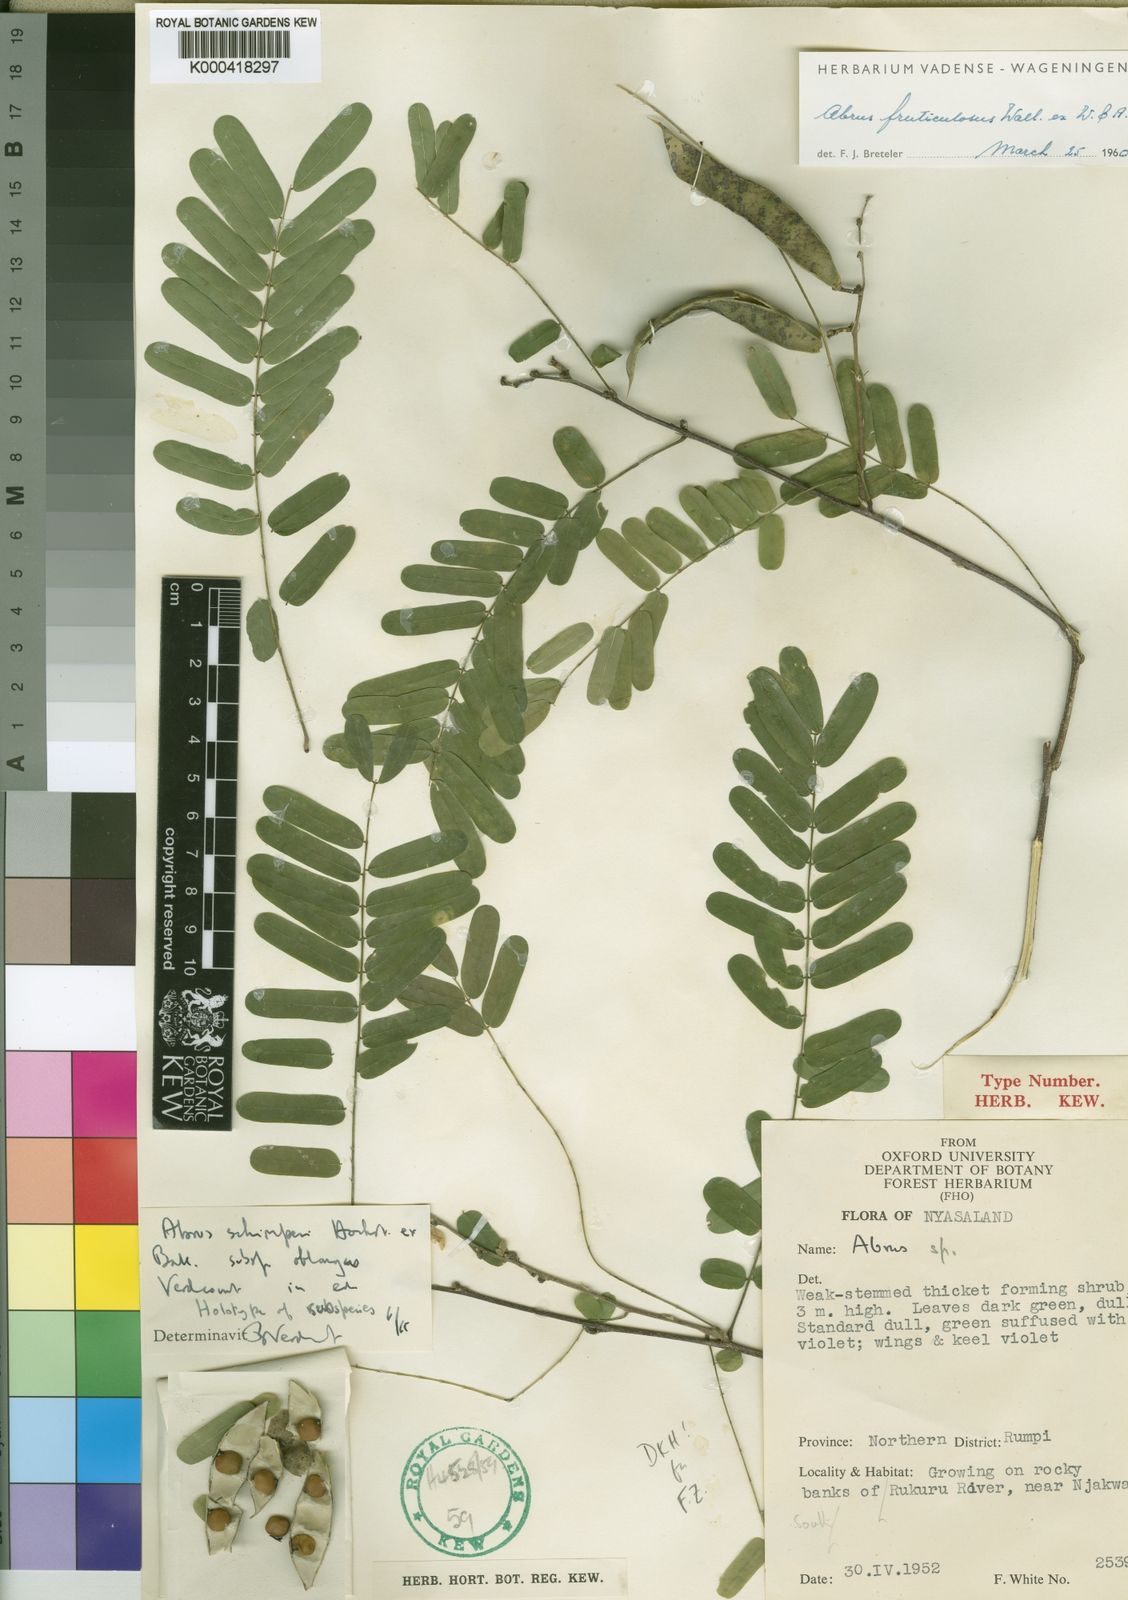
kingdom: Plantae
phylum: Tracheophyta
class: Magnoliopsida
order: Fabales
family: Fabaceae
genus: Abrus
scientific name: Abrus fruticulosus
